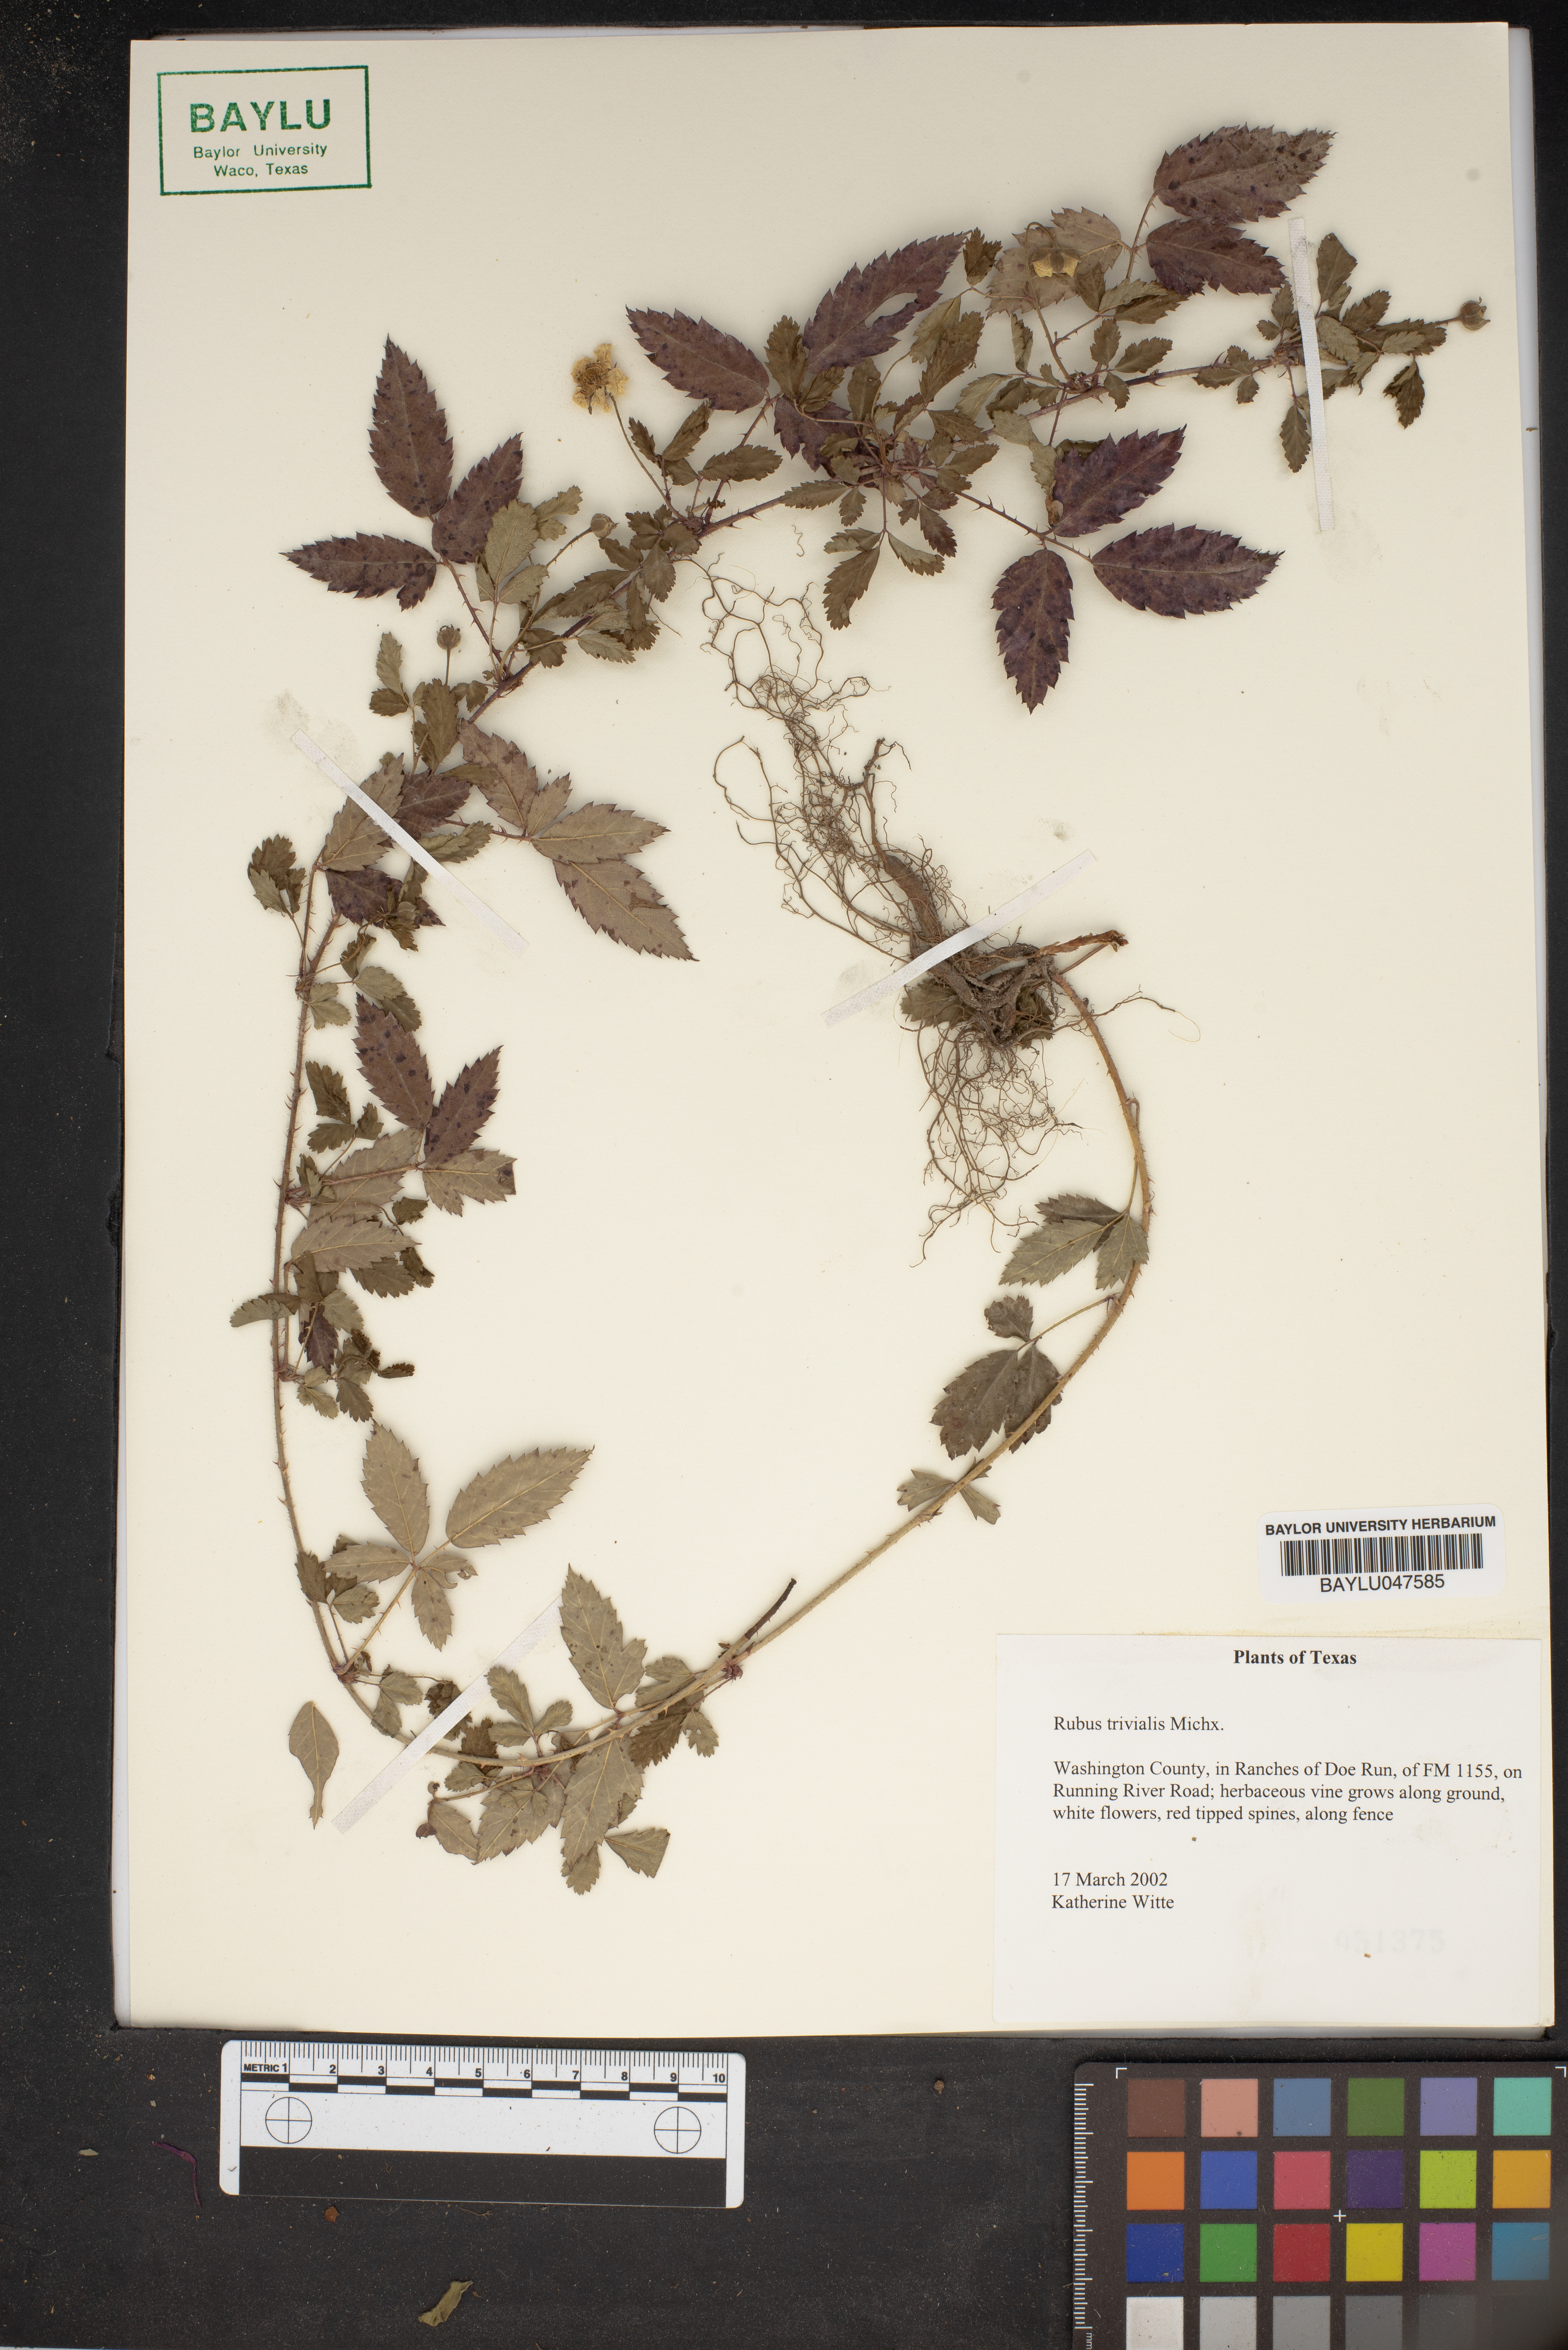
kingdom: Plantae
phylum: Tracheophyta
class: Magnoliopsida
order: Rosales
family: Rosaceae
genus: Rubus
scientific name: Rubus trivialis
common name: Southern dewberry
